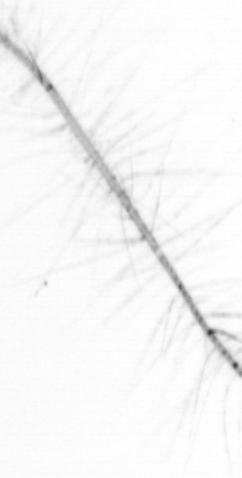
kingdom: Chromista
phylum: Ochrophyta
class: Bacillariophyceae
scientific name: Bacillariophyceae
